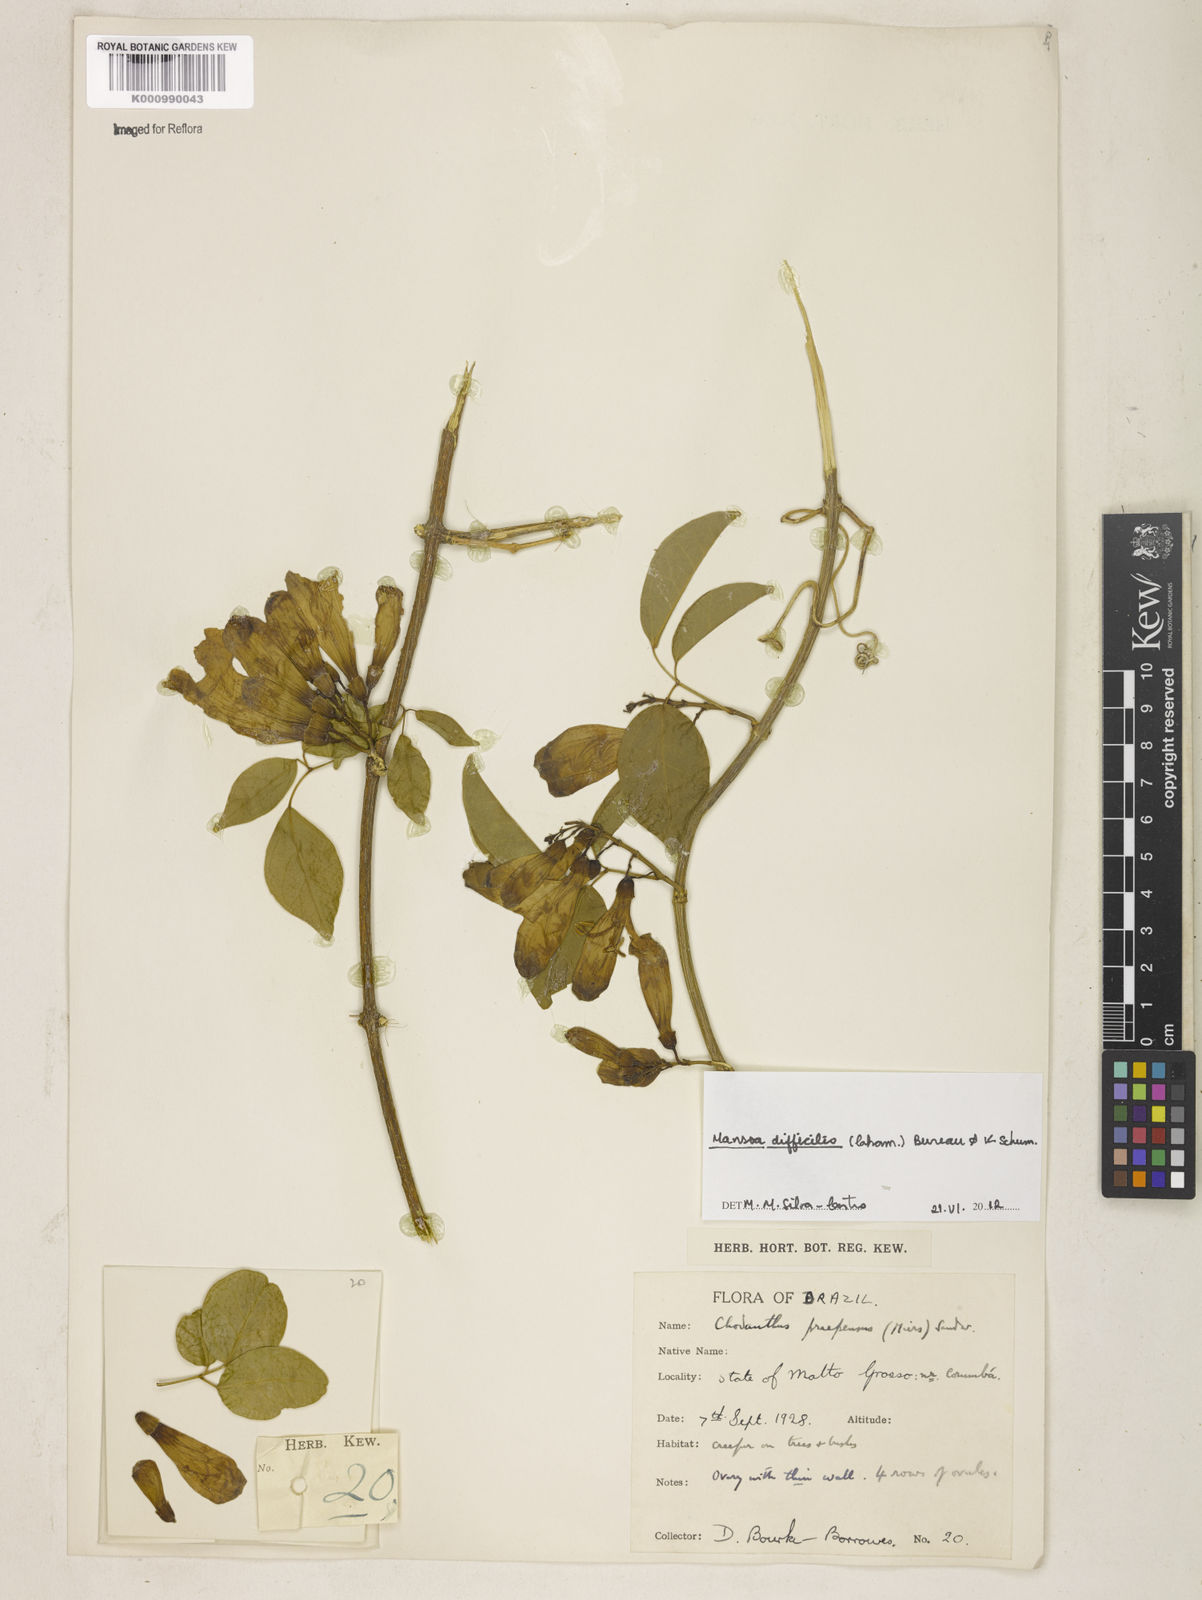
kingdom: Plantae
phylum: Tracheophyta
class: Magnoliopsida
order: Lamiales
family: Bignoniaceae
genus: Mansoa
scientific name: Mansoa difficilis
